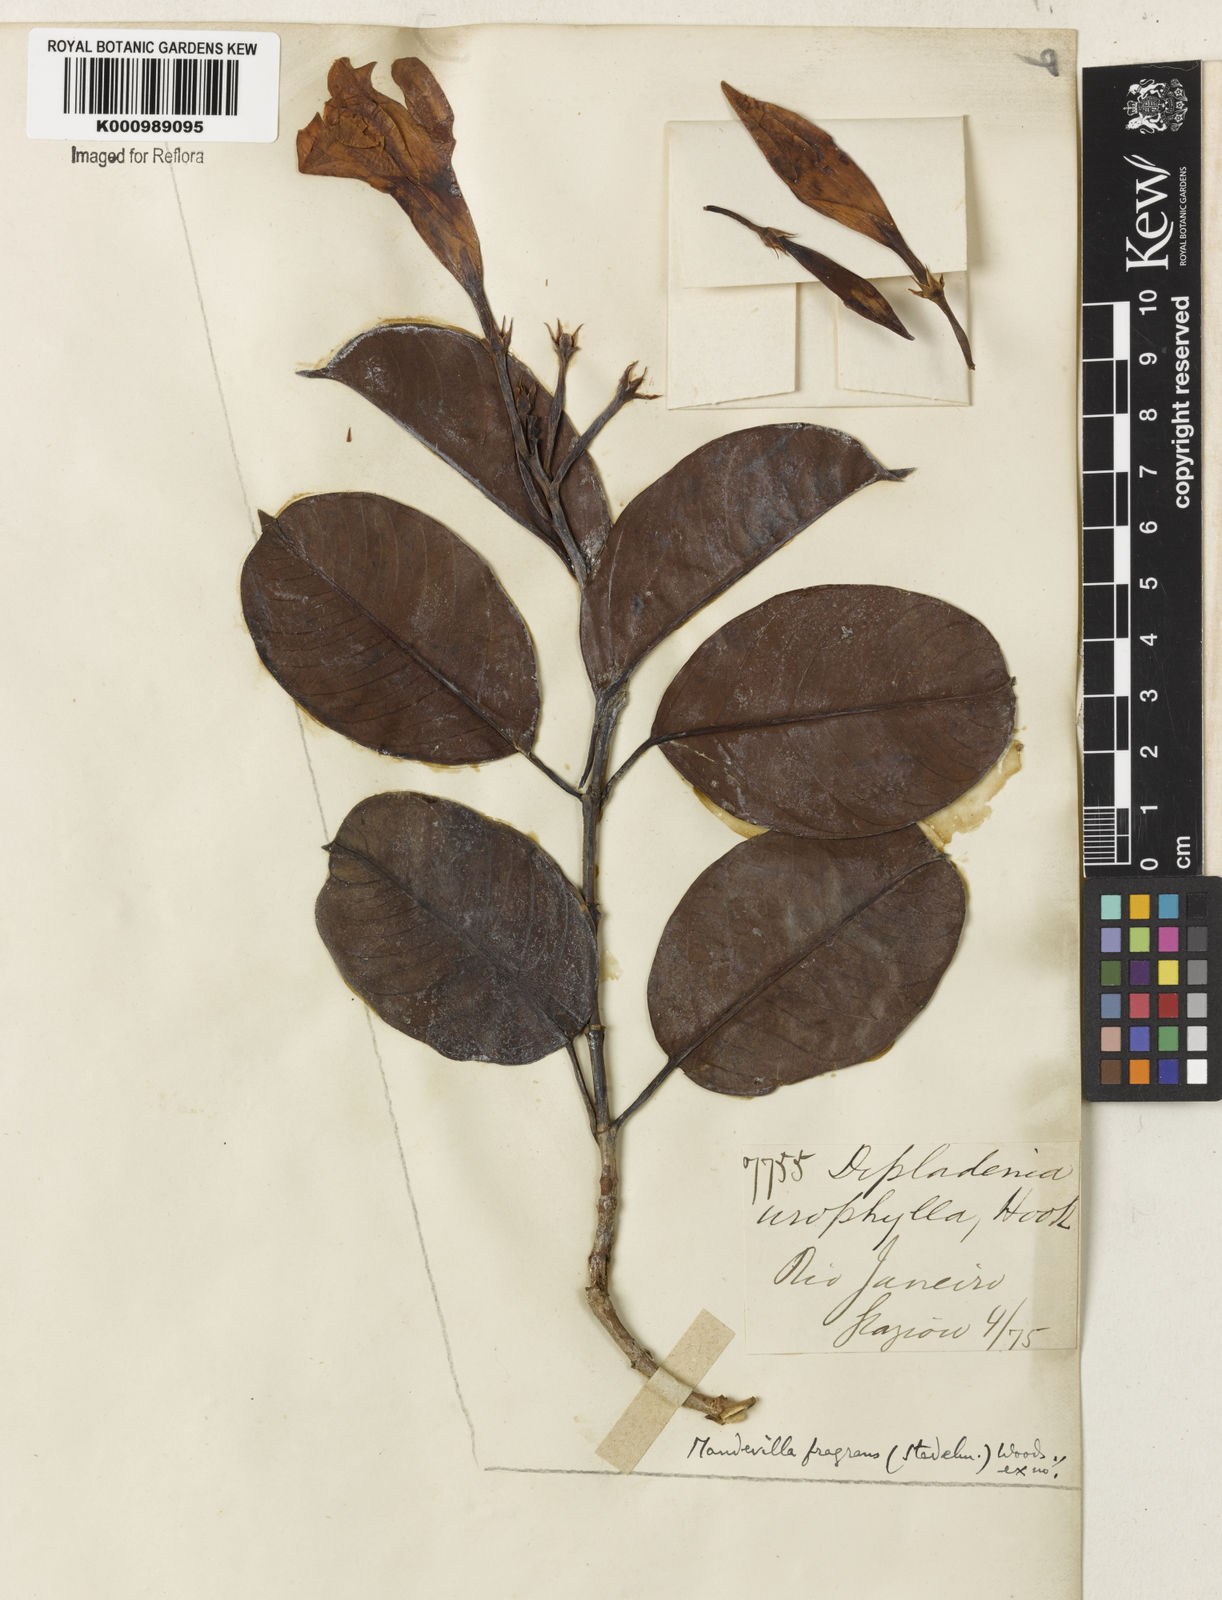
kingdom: Plantae
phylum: Tracheophyta
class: Magnoliopsida
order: Gentianales
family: Apocynaceae
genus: Mandevilla
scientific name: Mandevilla fragrans
